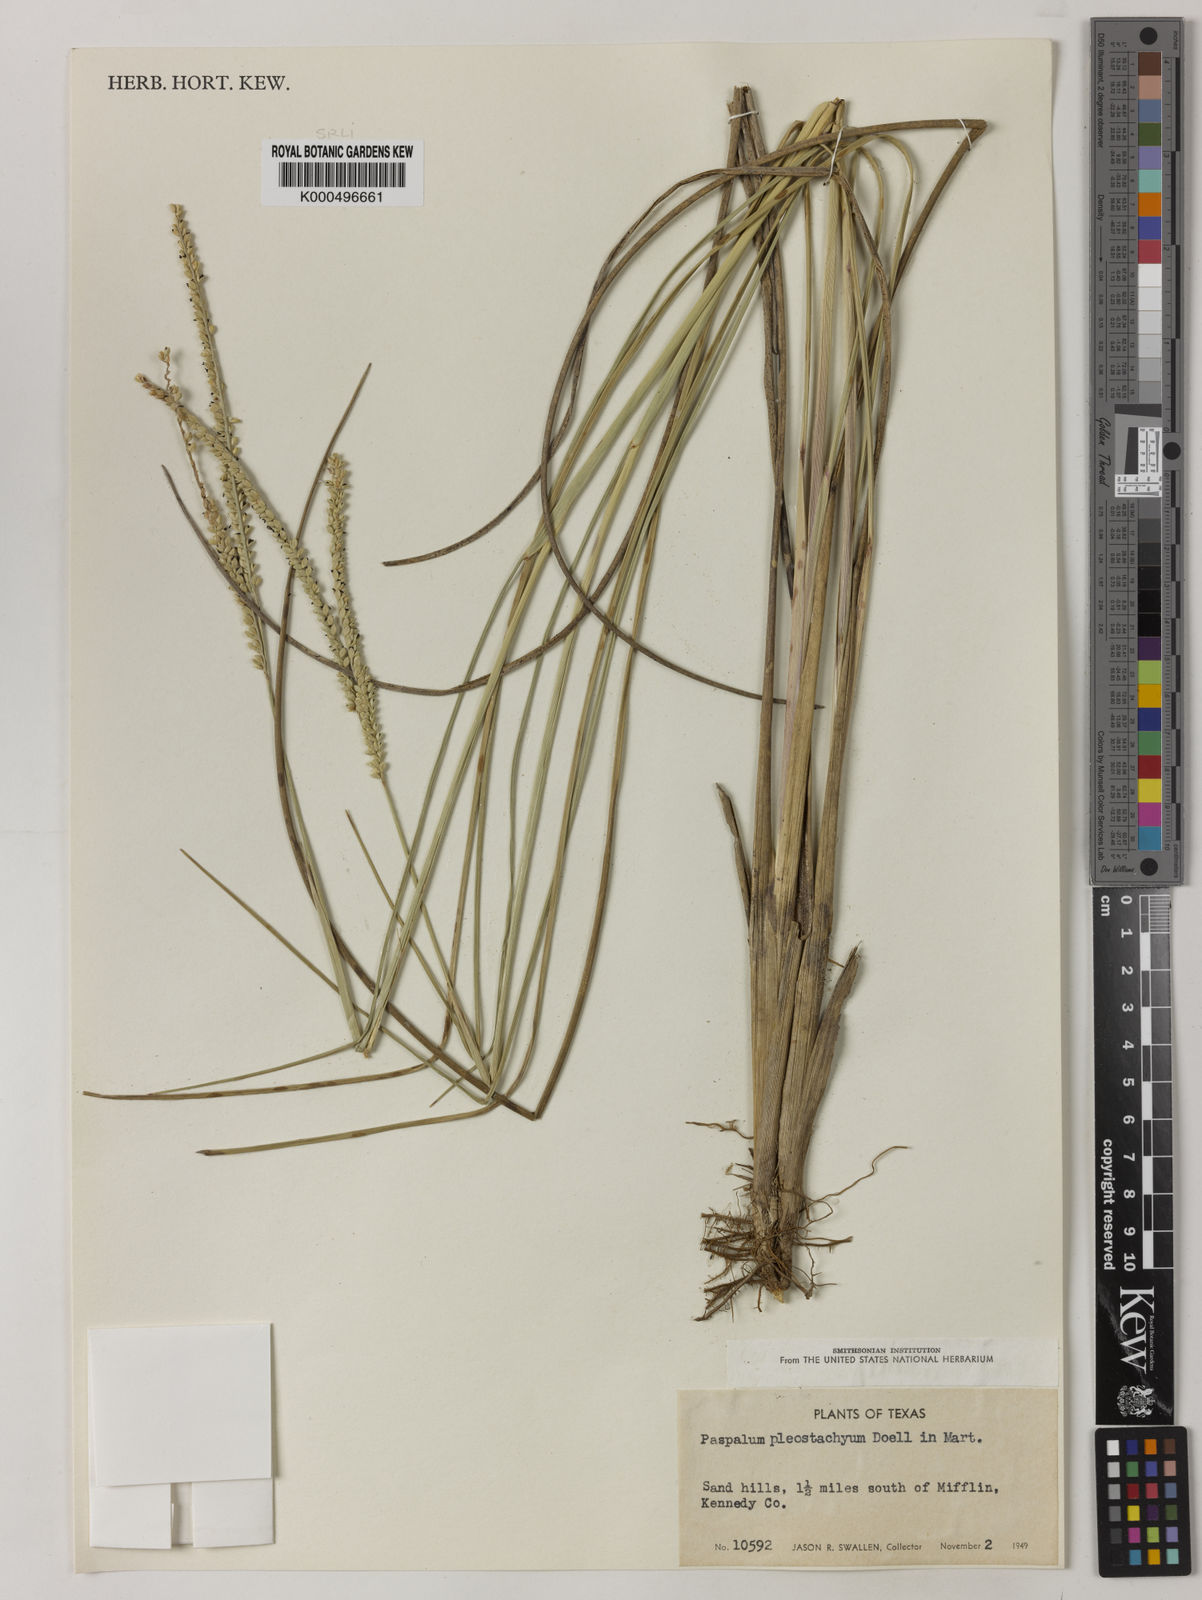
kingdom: Plantae
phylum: Tracheophyta
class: Liliopsida
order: Poales
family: Poaceae
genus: Paspalum
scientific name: Paspalum
